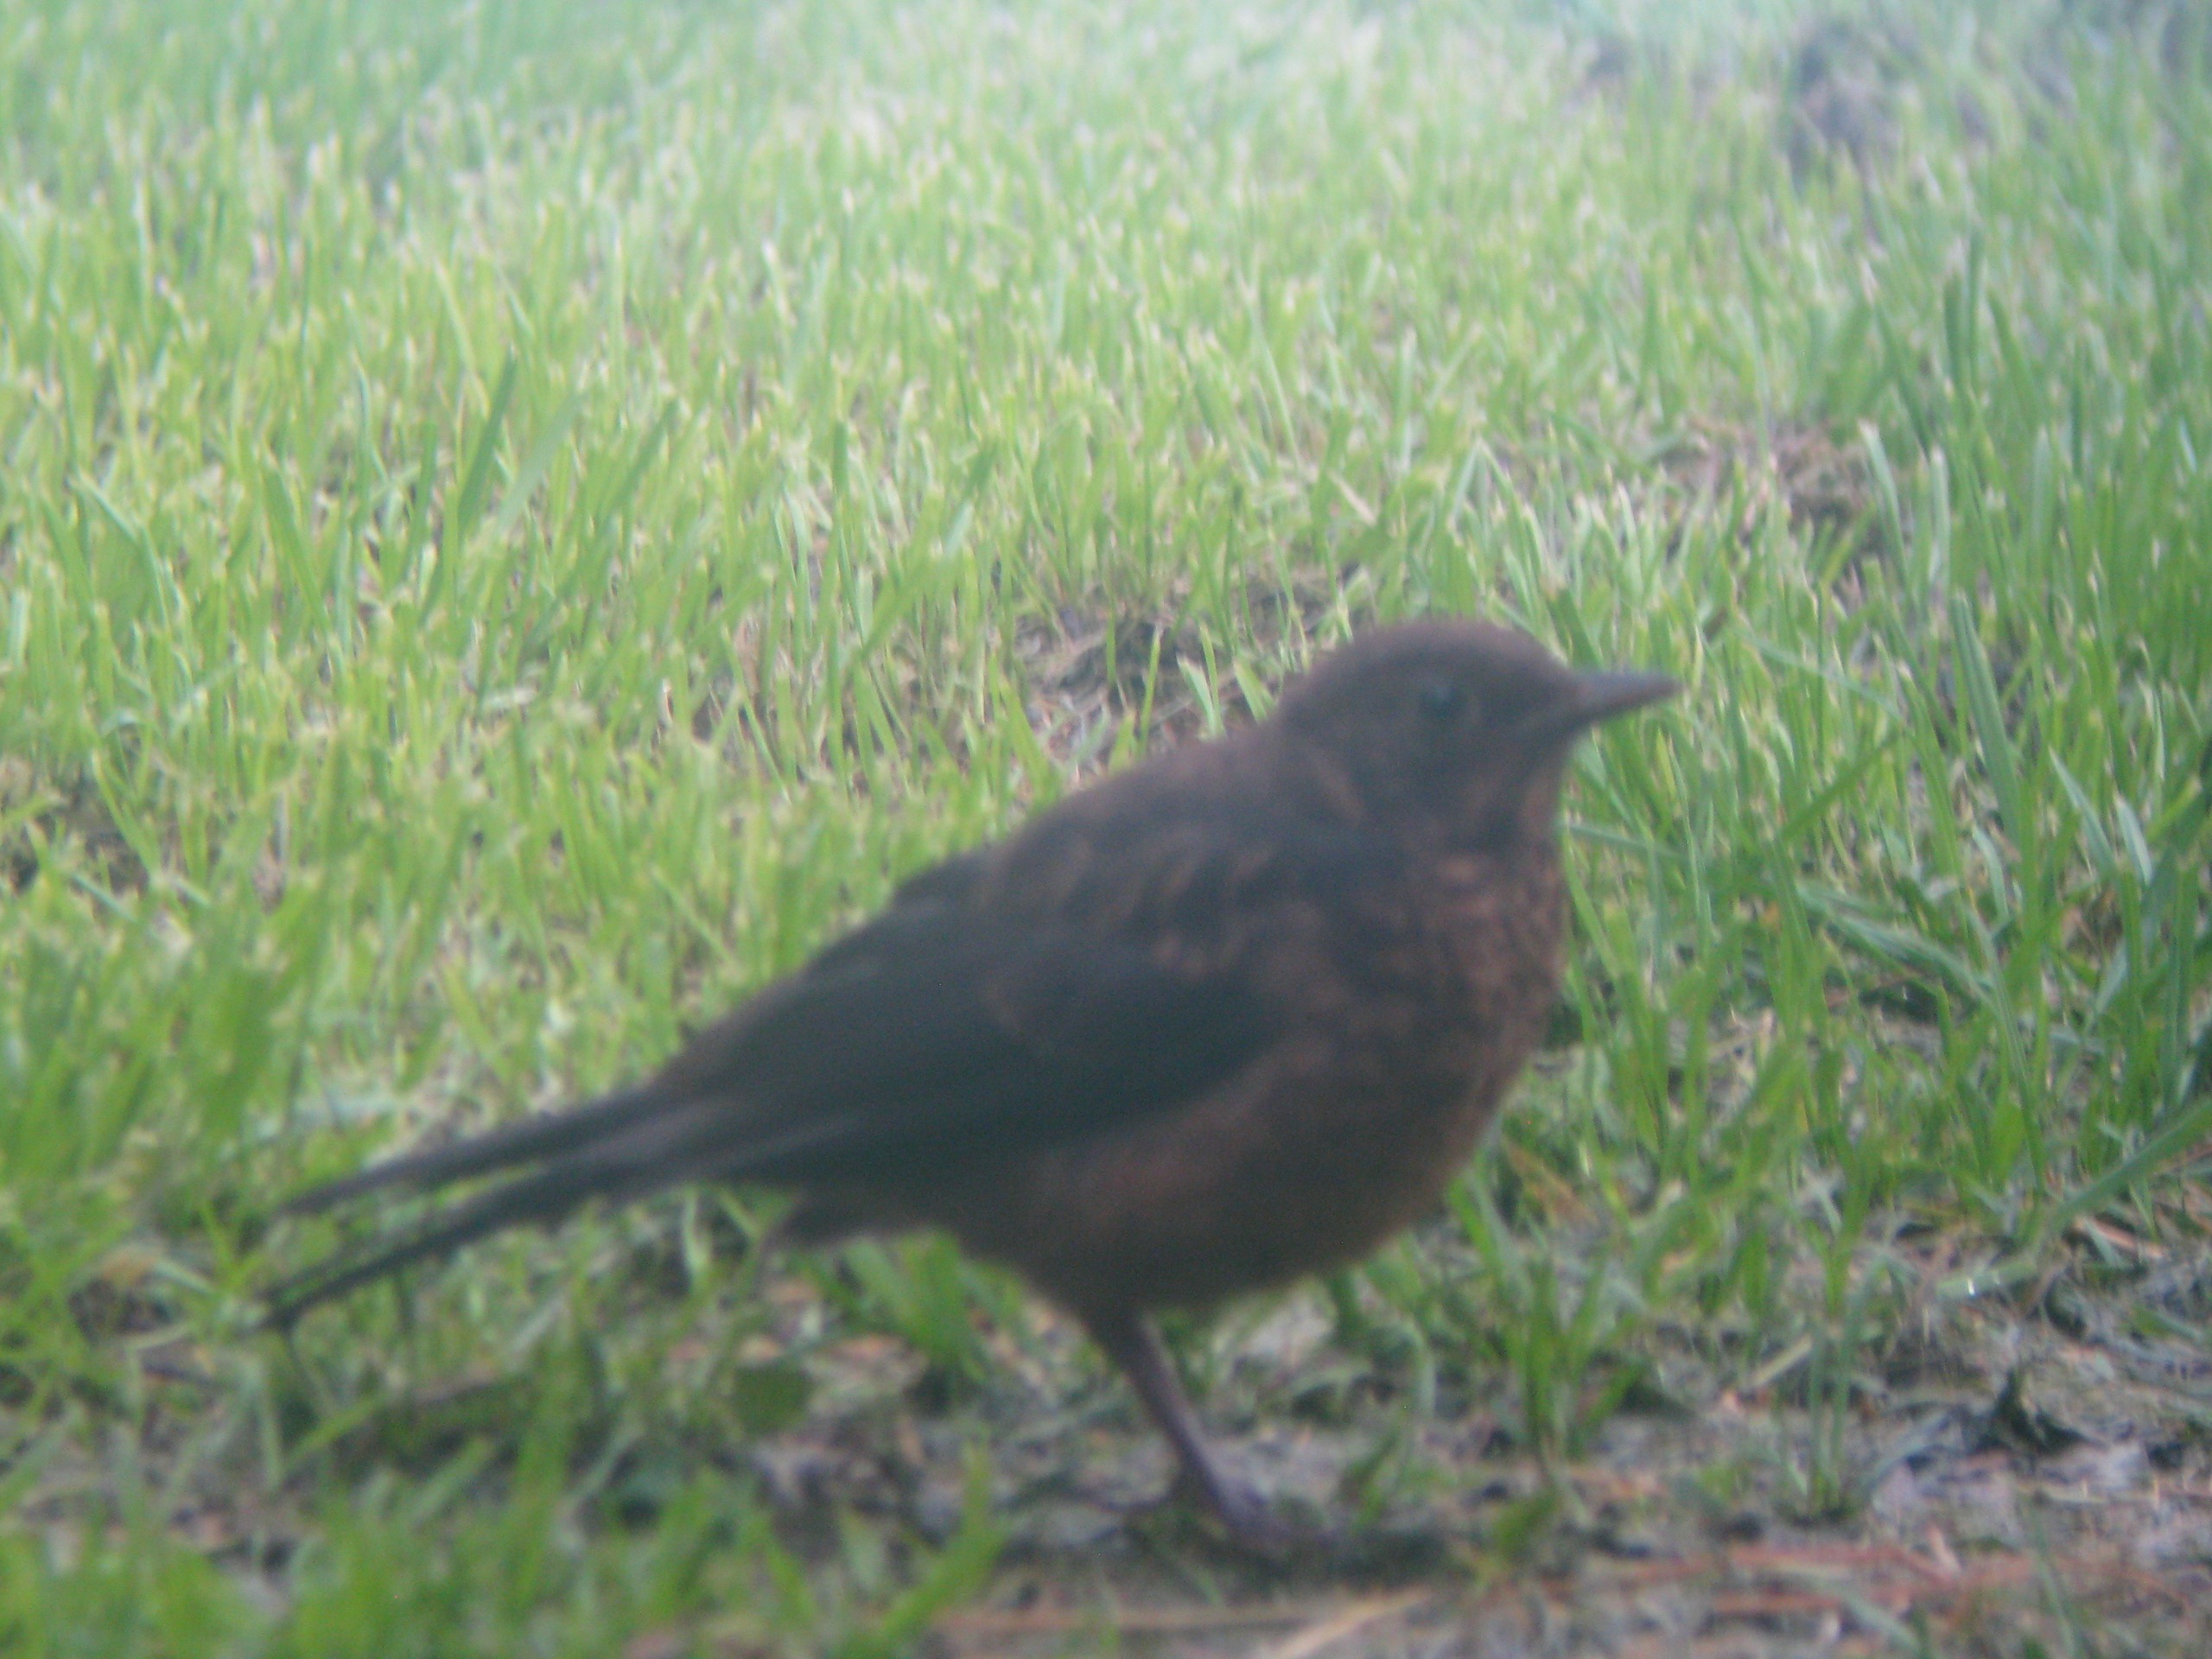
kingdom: Animalia
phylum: Chordata
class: Aves
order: Passeriformes
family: Turdidae
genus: Turdus
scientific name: Turdus merula
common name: Solsort
